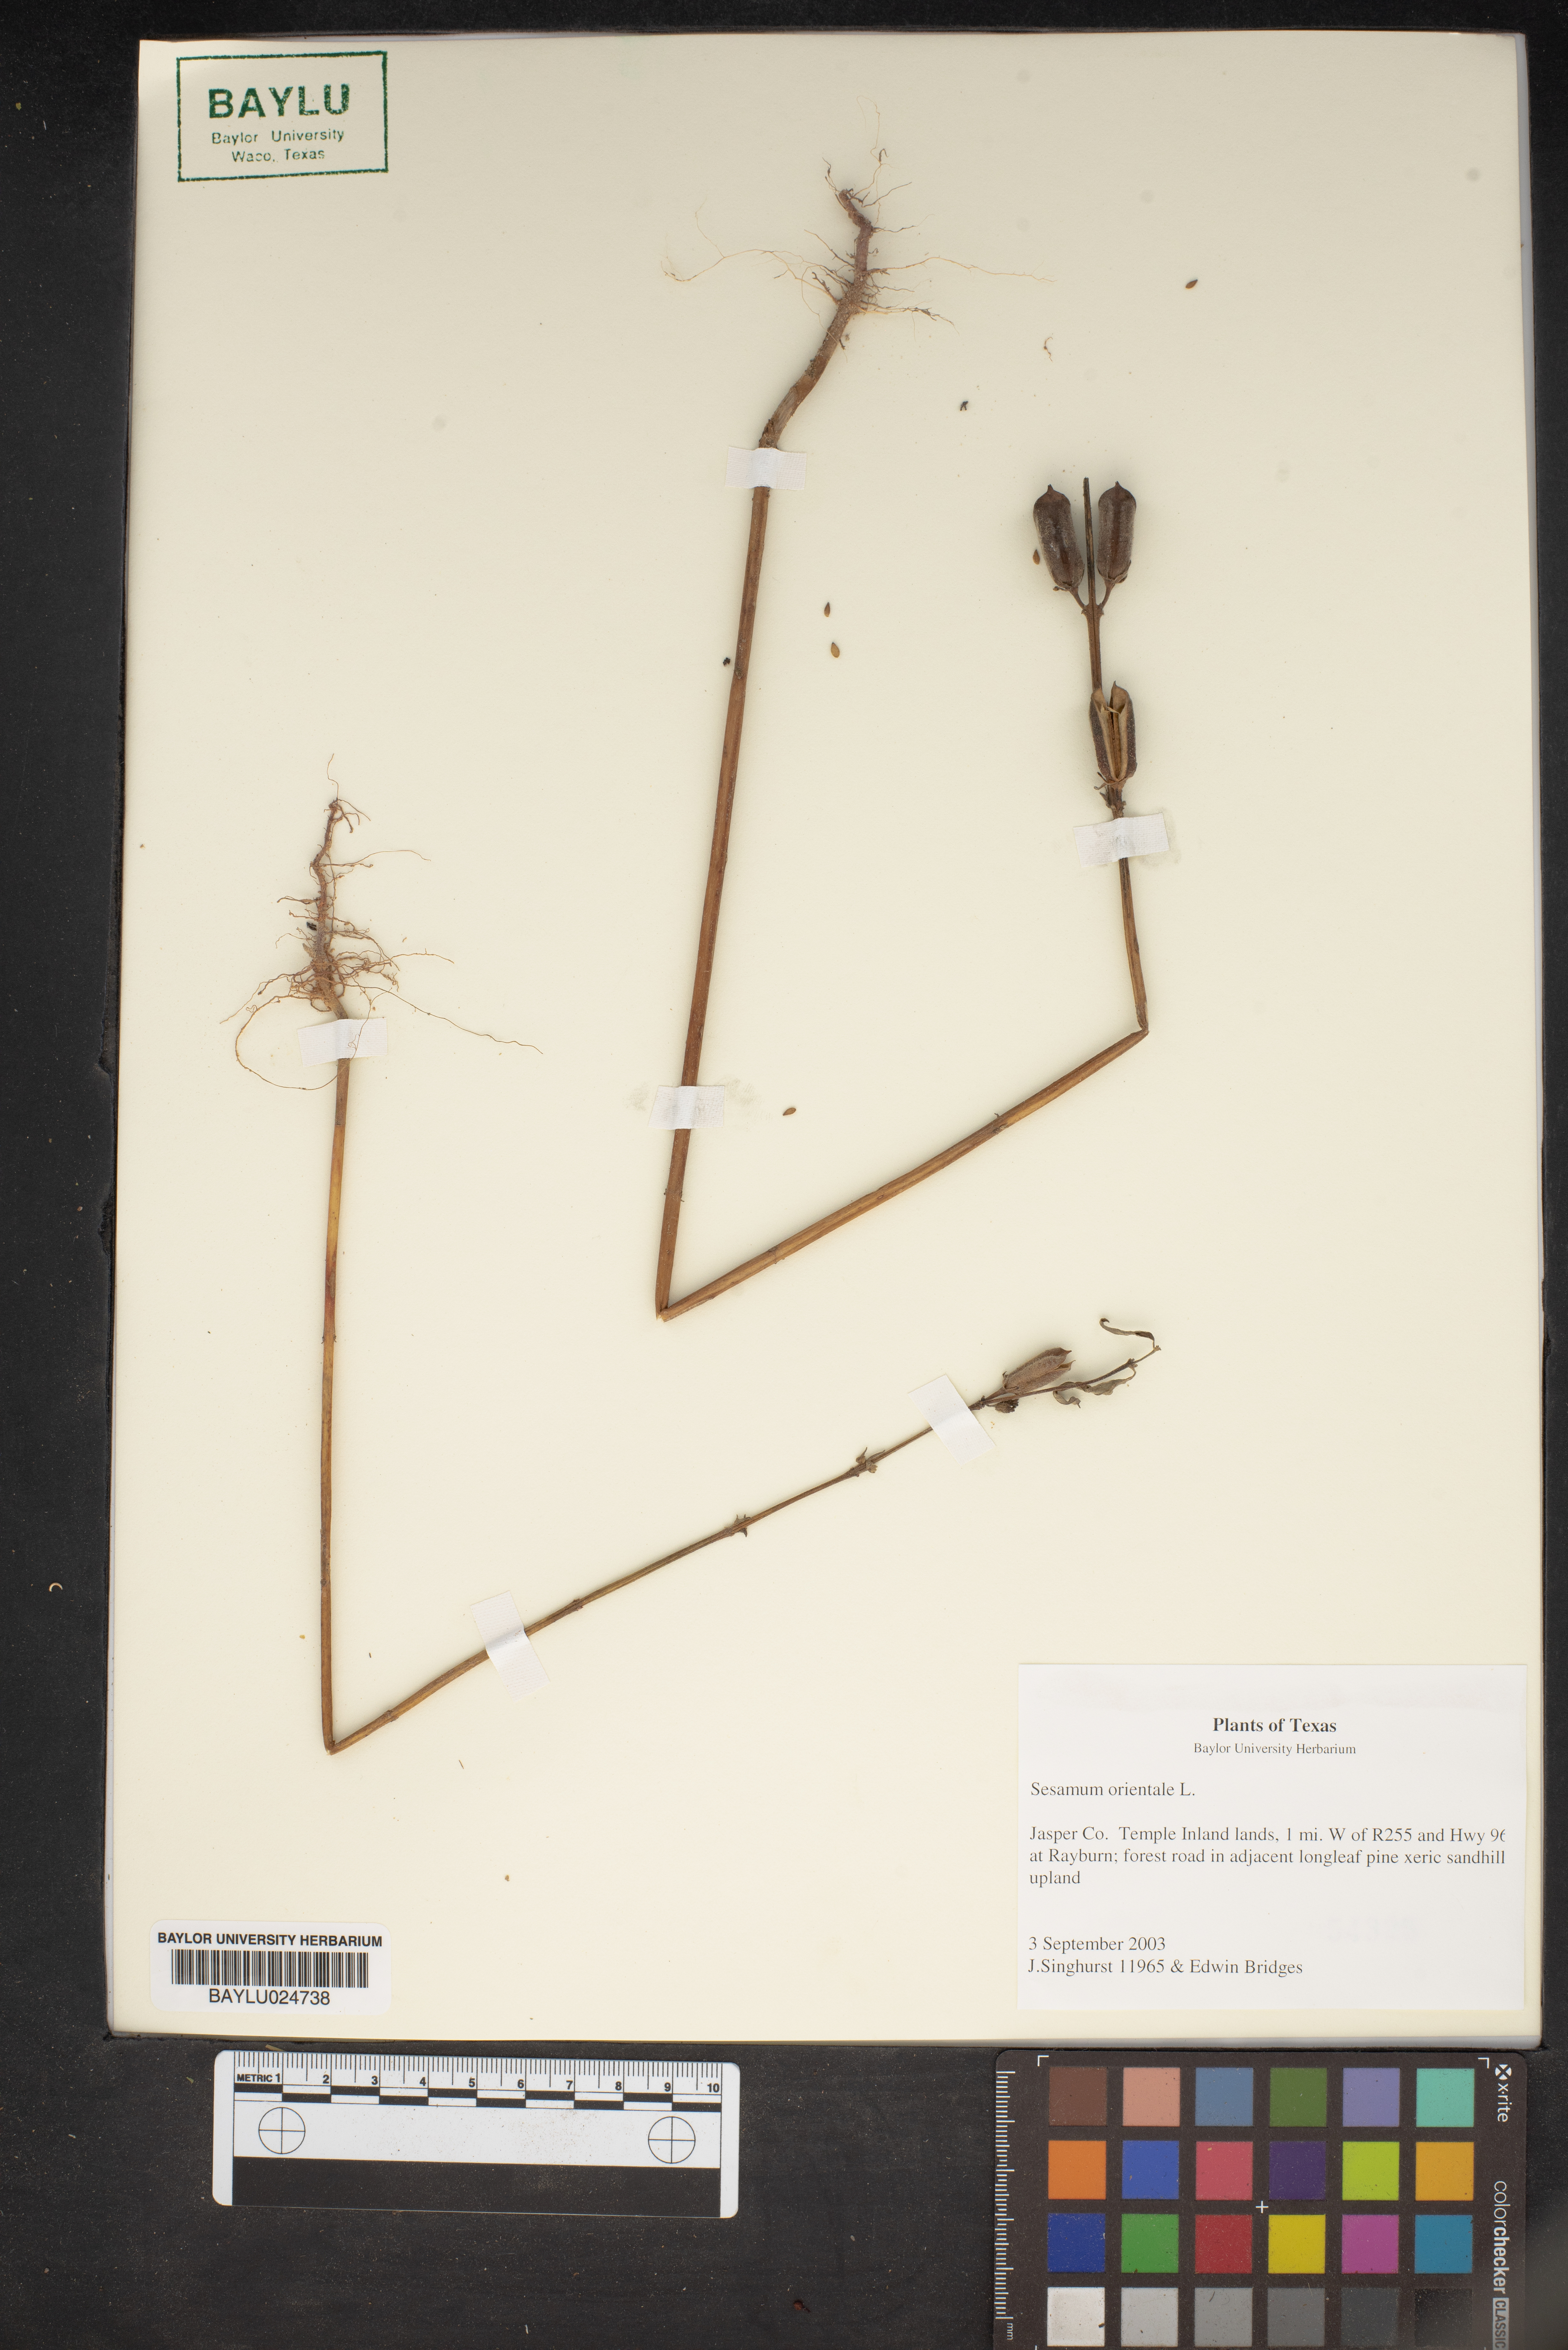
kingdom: Plantae
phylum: Tracheophyta
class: Magnoliopsida
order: Lamiales
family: Pedaliaceae
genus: Sesamum
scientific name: Sesamum orientale
